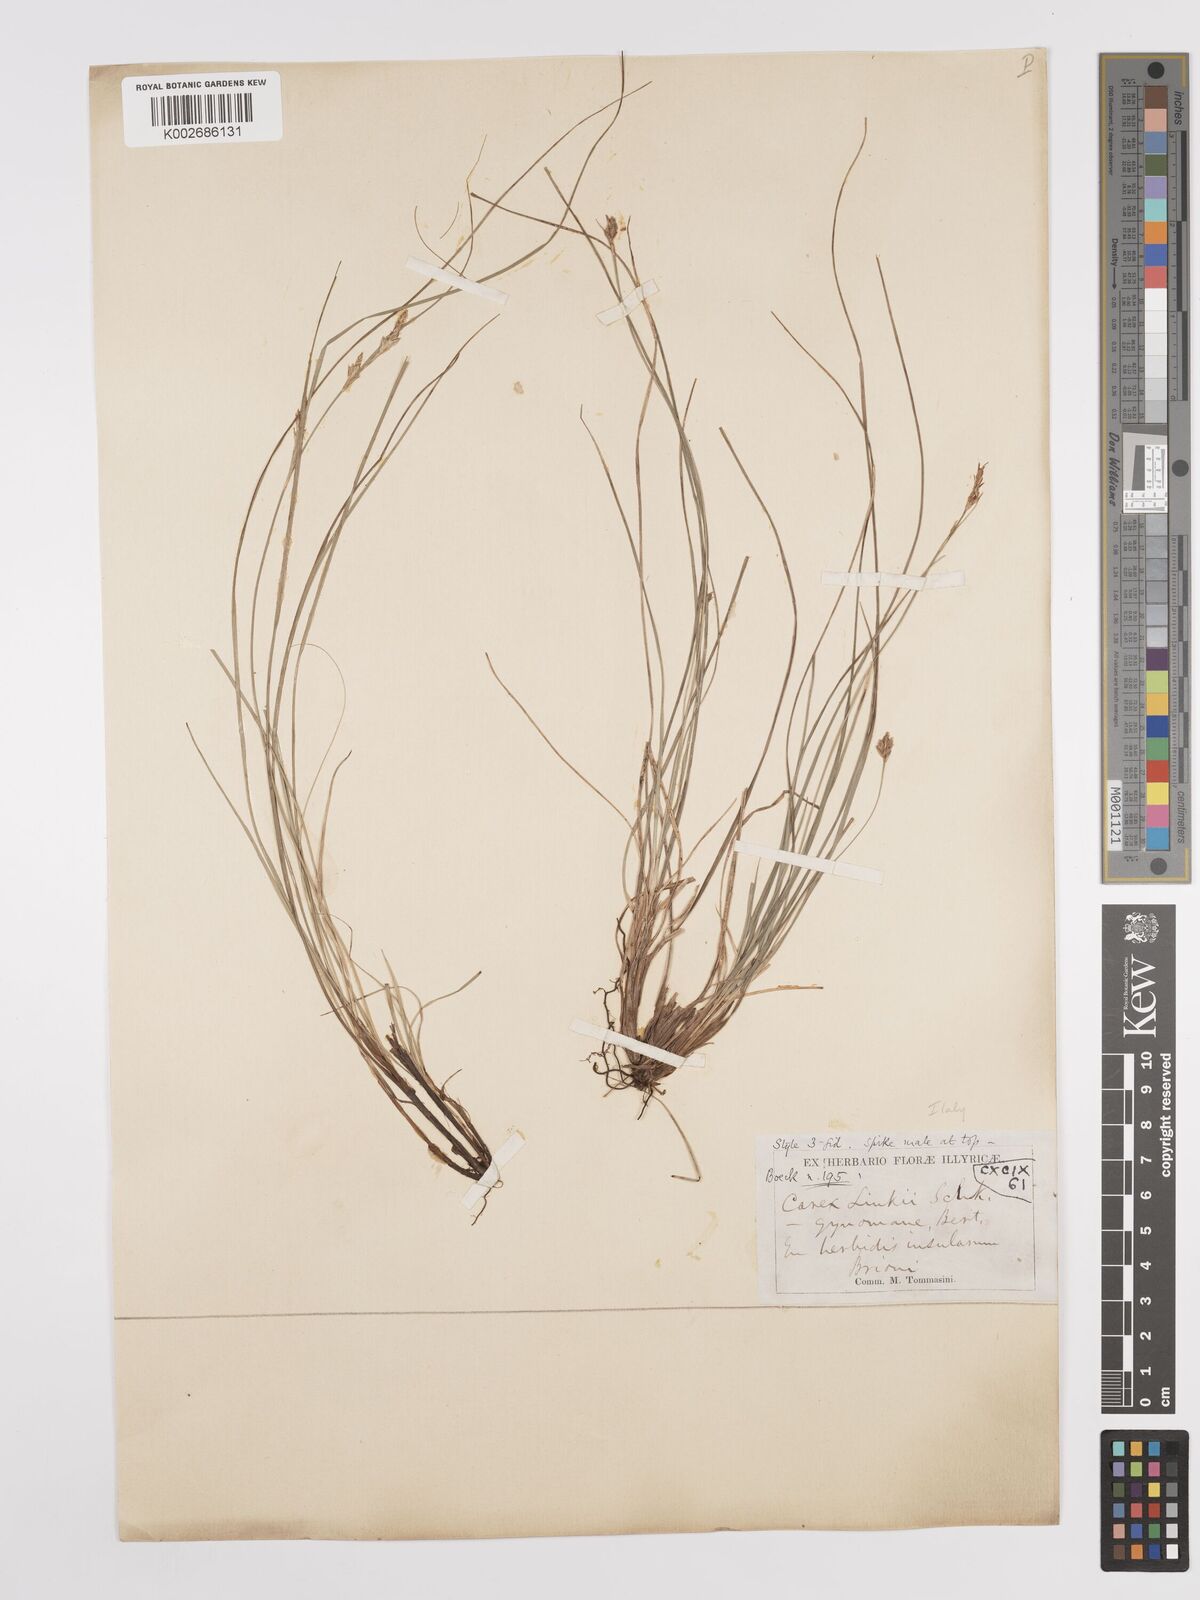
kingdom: Plantae
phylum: Tracheophyta
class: Liliopsida
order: Poales
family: Cyperaceae
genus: Carex
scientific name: Carex distachya
